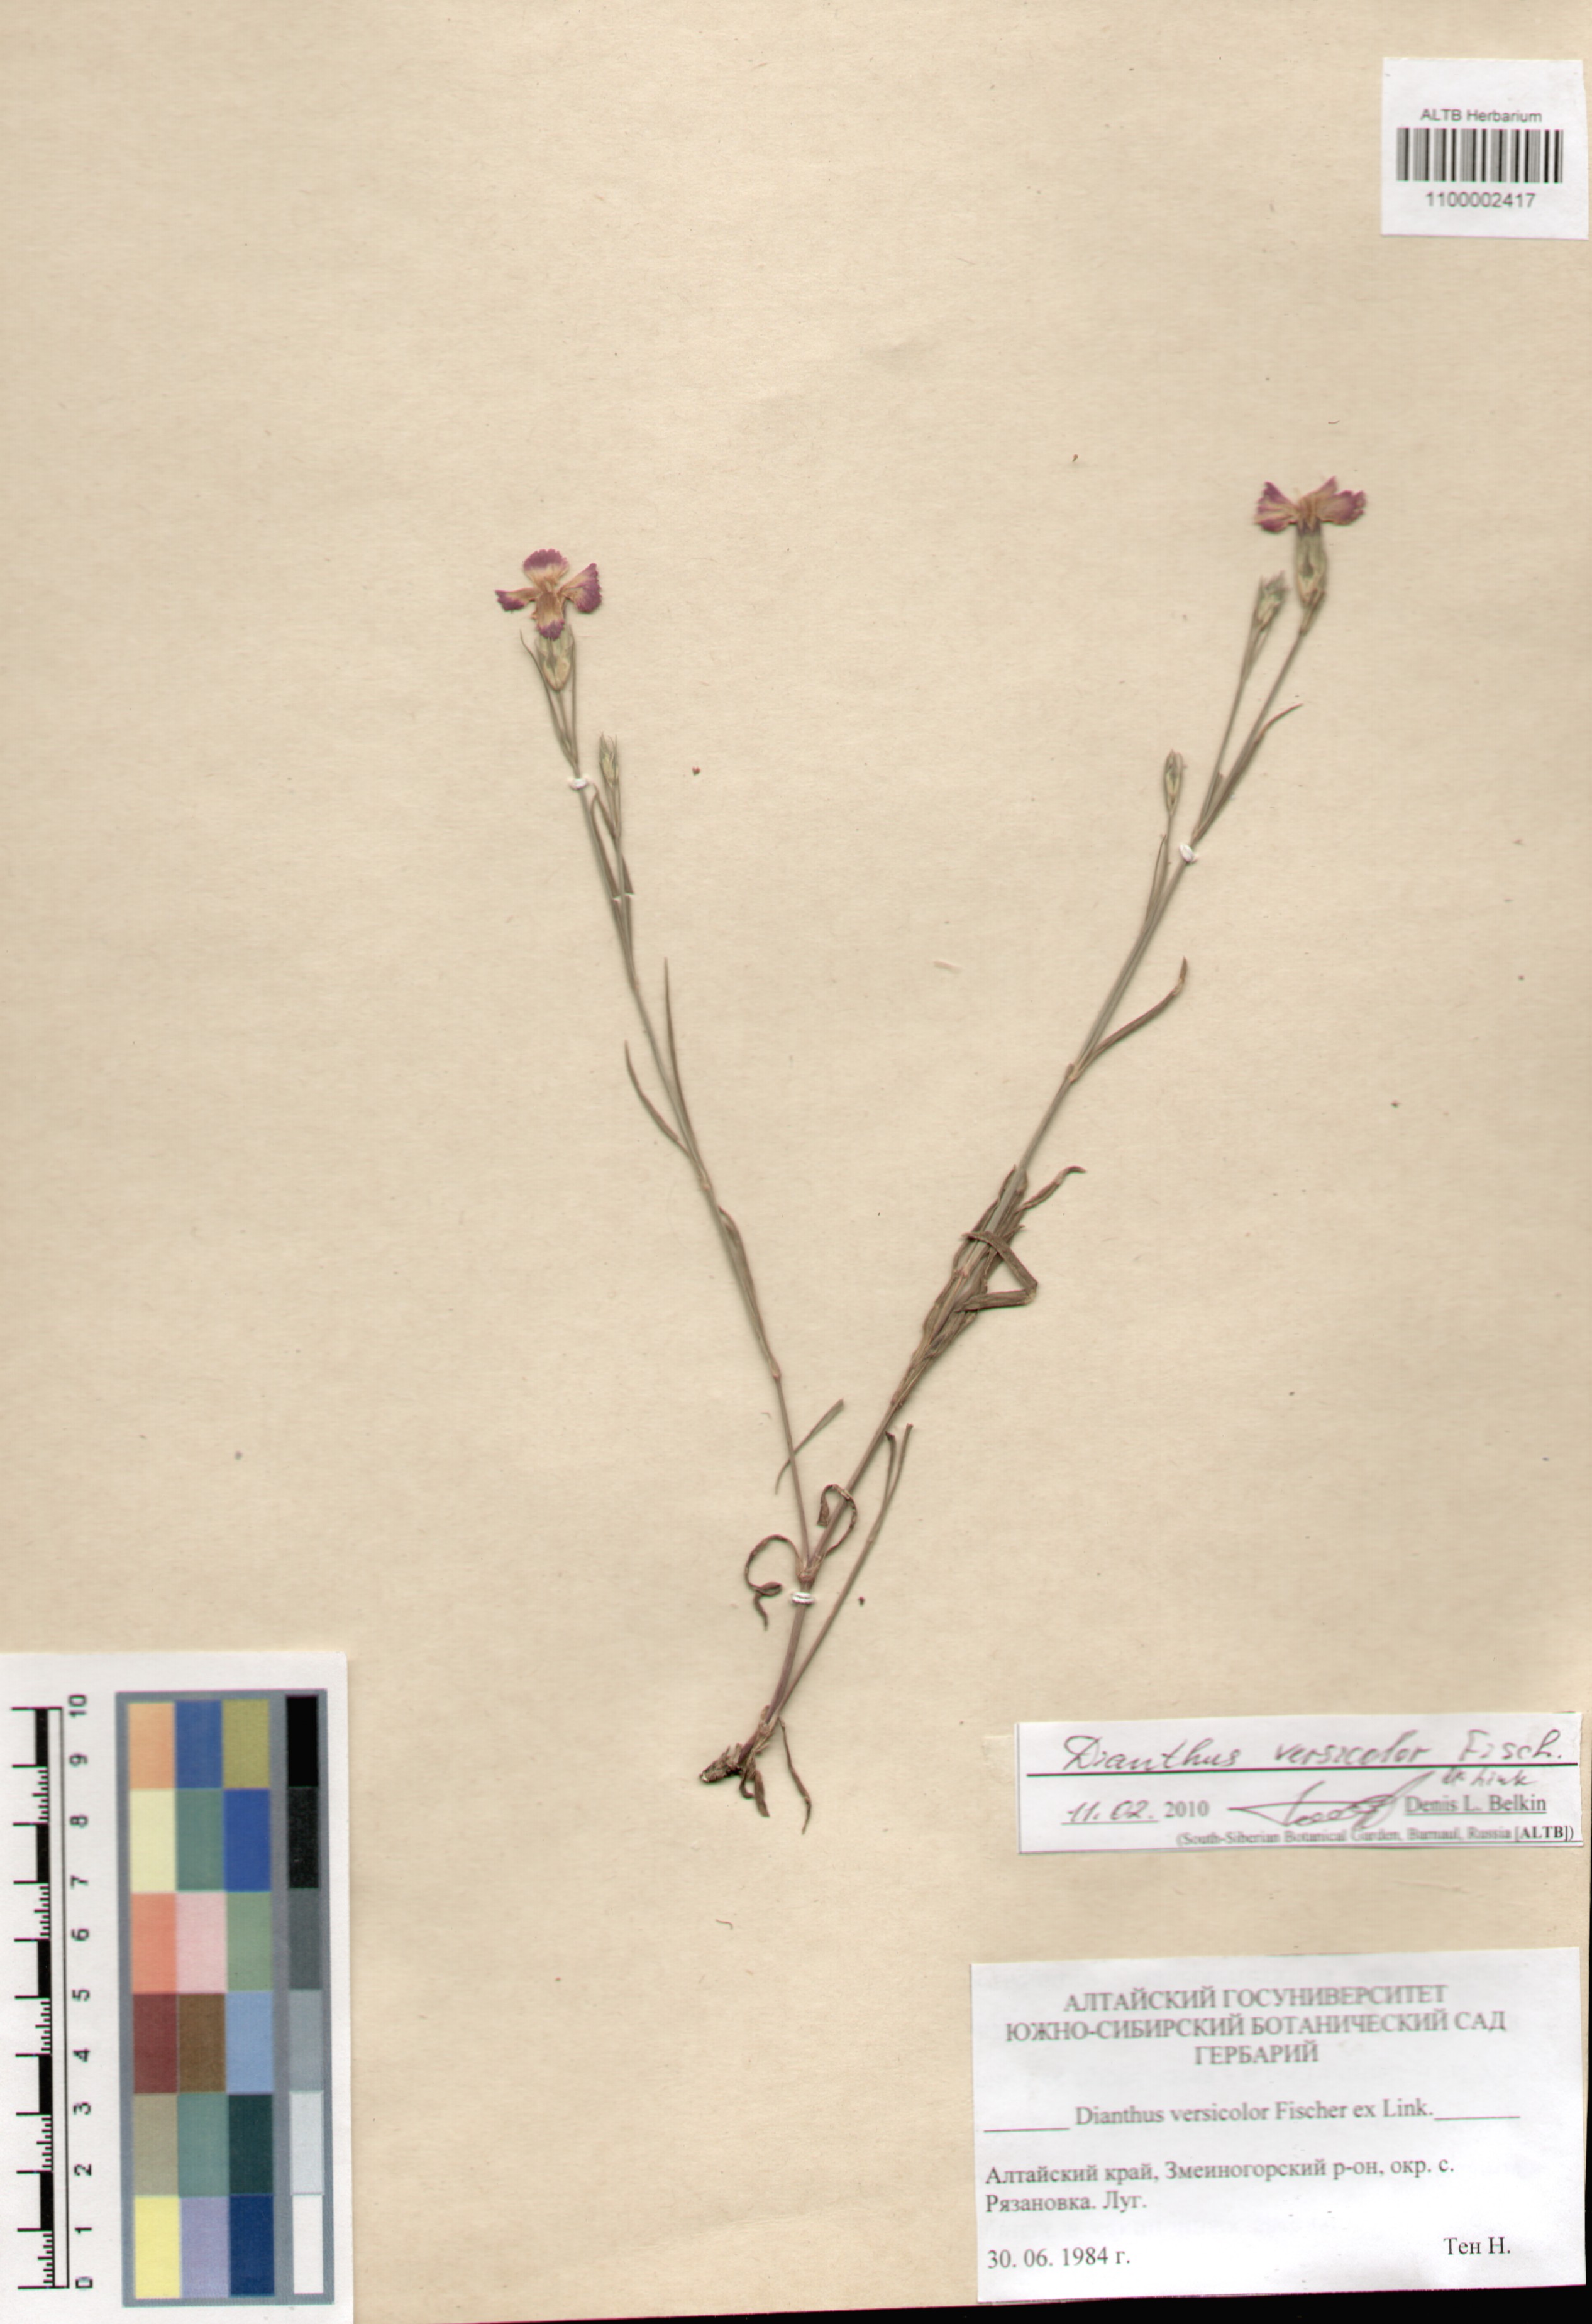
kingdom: Plantae
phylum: Tracheophyta
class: Magnoliopsida
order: Caryophyllales
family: Caryophyllaceae
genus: Dianthus
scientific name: Dianthus chinensis
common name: Rainbow pink
